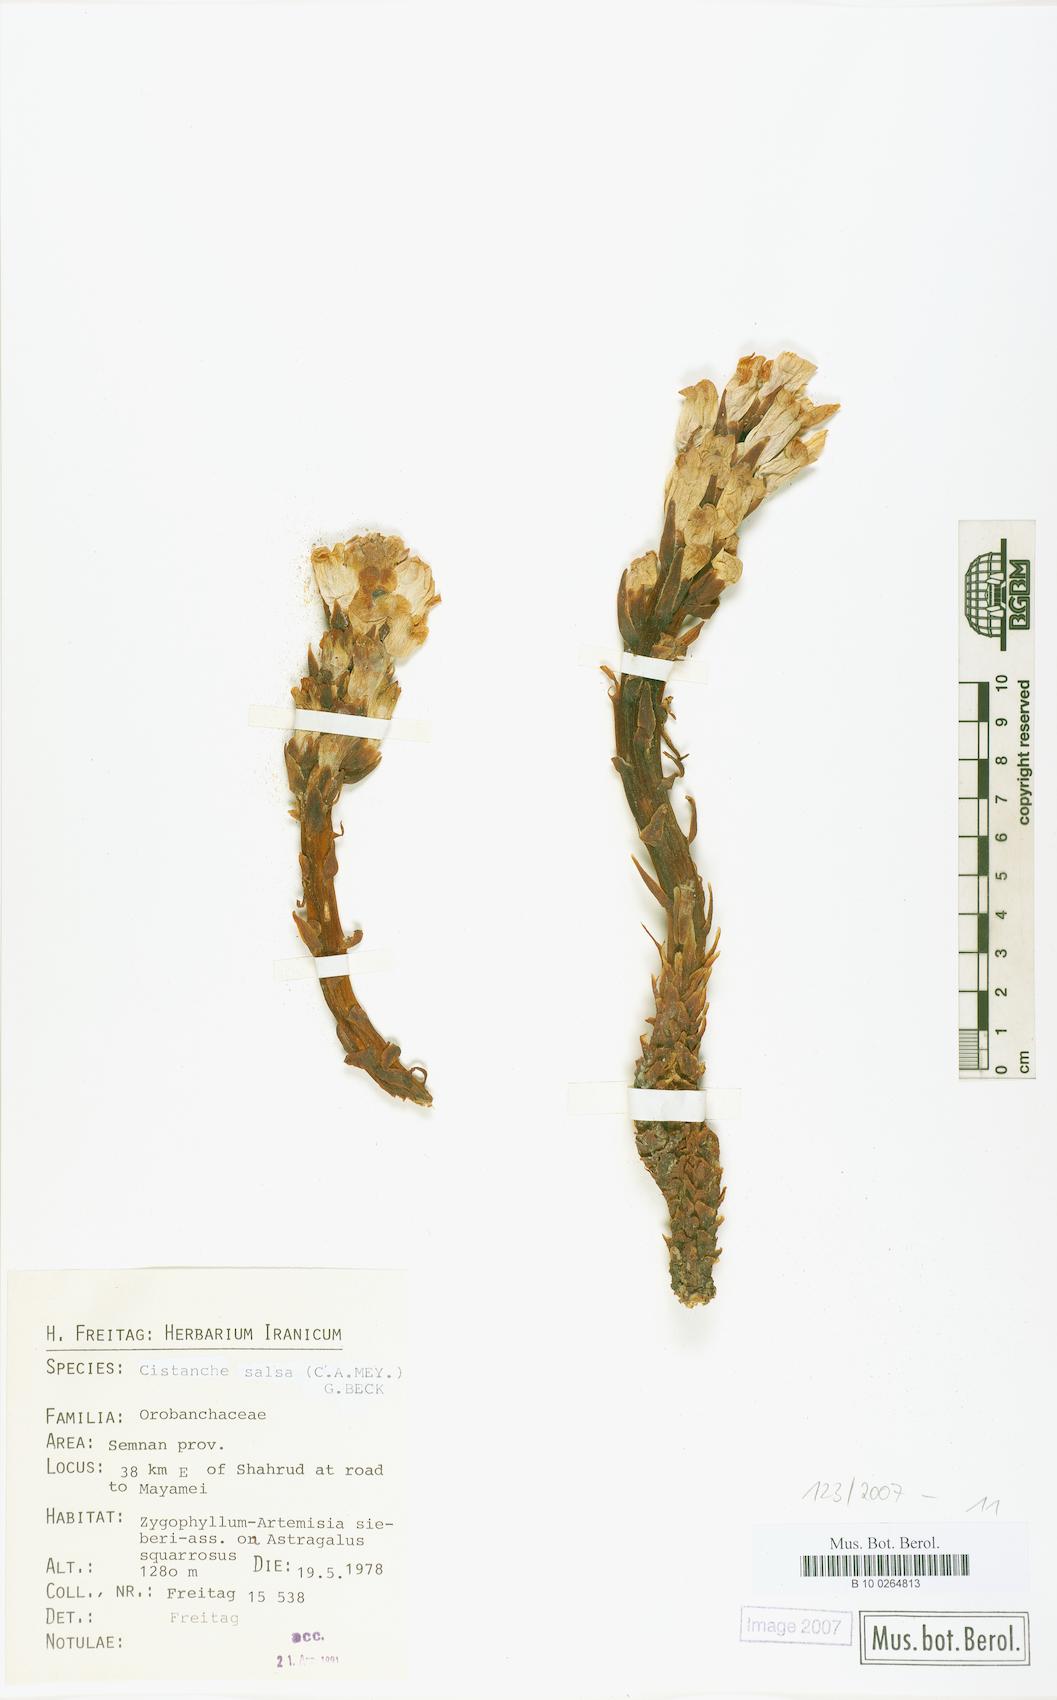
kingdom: Plantae
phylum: Tracheophyta
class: Magnoliopsida
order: Lamiales
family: Orobanchaceae
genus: Cistanche
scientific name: Cistanche persica
